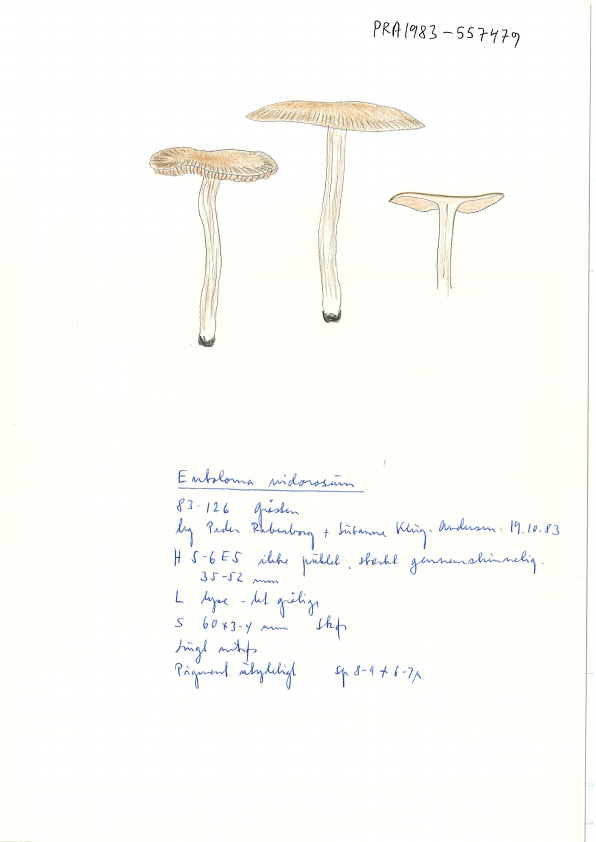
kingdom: Fungi
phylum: Basidiomycota
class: Agaricomycetes
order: Agaricales
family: Entolomataceae
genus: Entoloma
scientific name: Entoloma rhodopolium
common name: skov-rødblad
